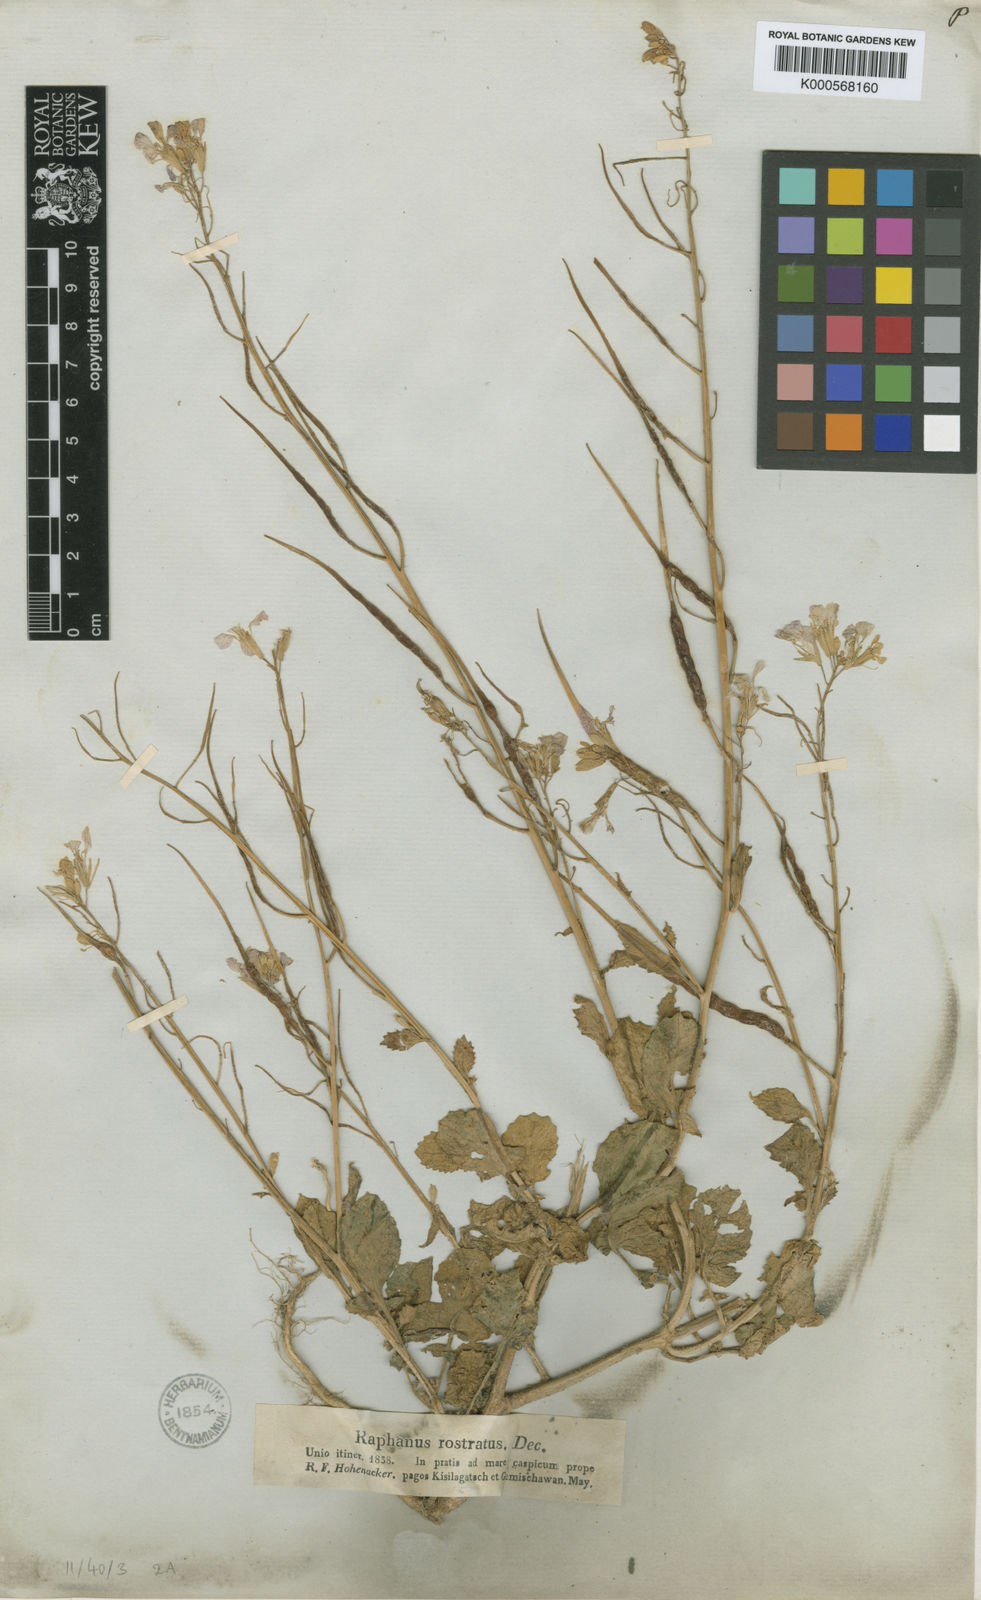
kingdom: Plantae
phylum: Tracheophyta
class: Magnoliopsida
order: Brassicales
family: Brassicaceae
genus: Raphanus
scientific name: Raphanus raphanistrum
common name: Wild radish
